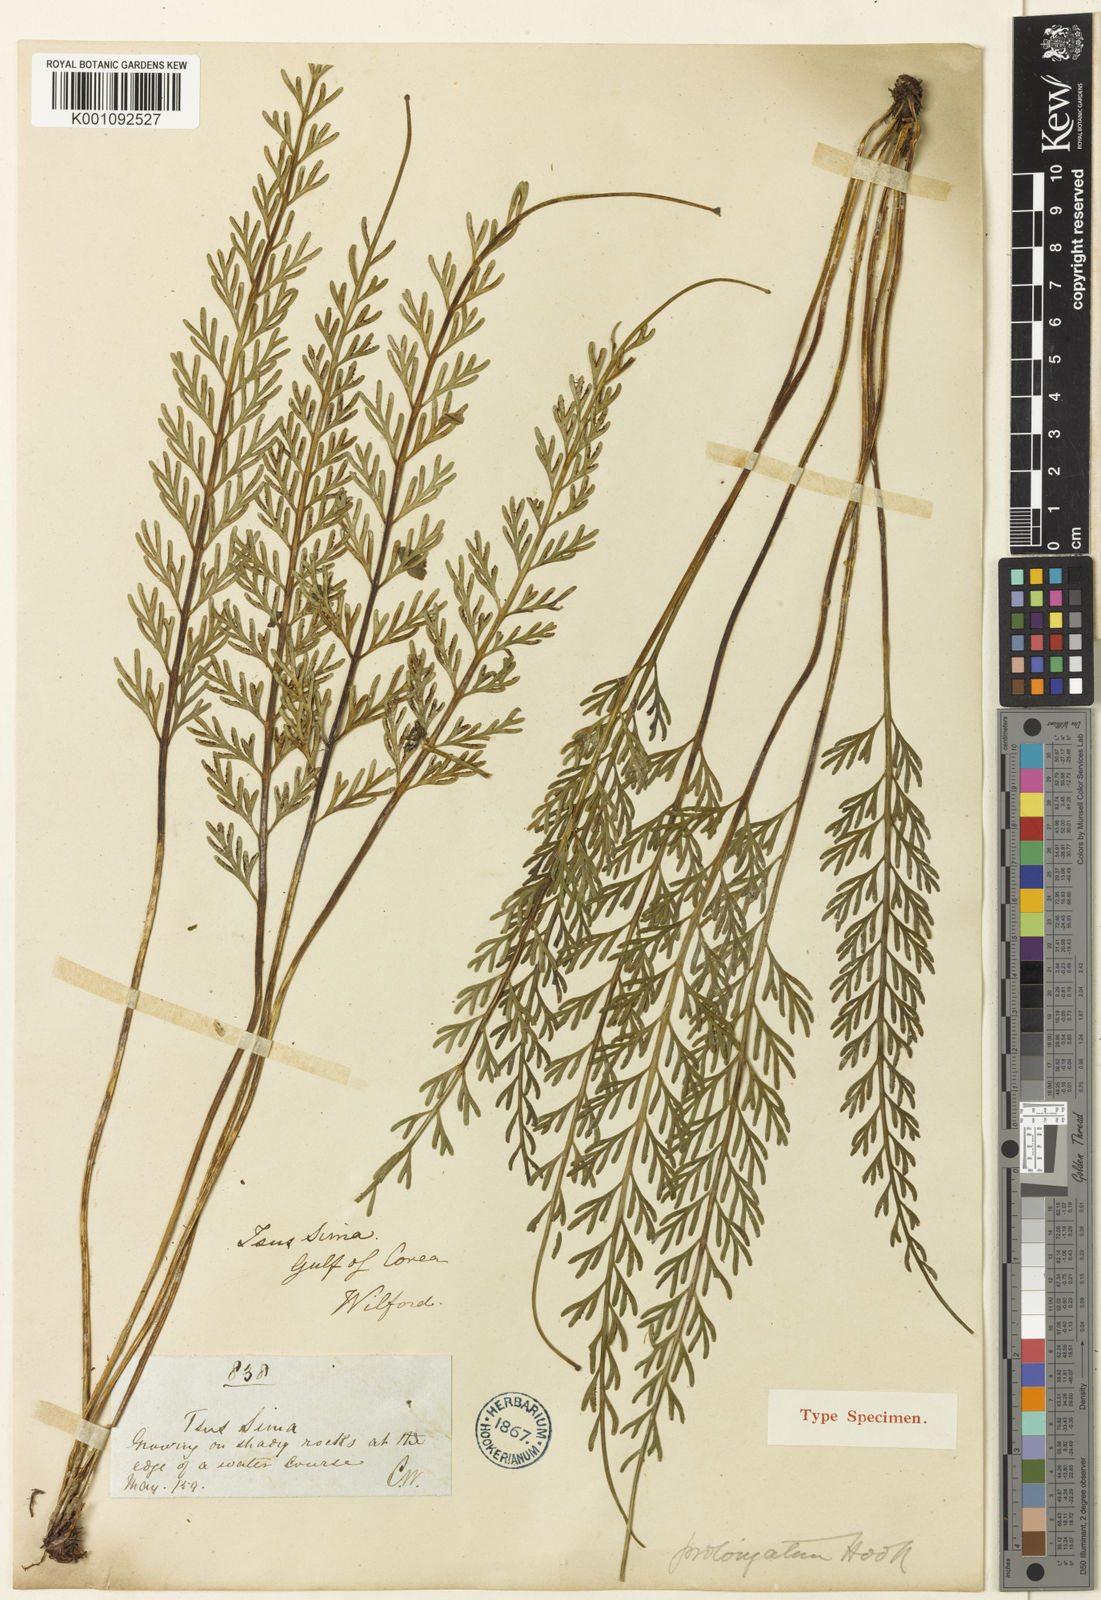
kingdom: Plantae
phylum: Tracheophyta
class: Polypodiopsida
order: Polypodiales
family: Aspleniaceae
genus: Asplenium
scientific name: Asplenium prolongatum
